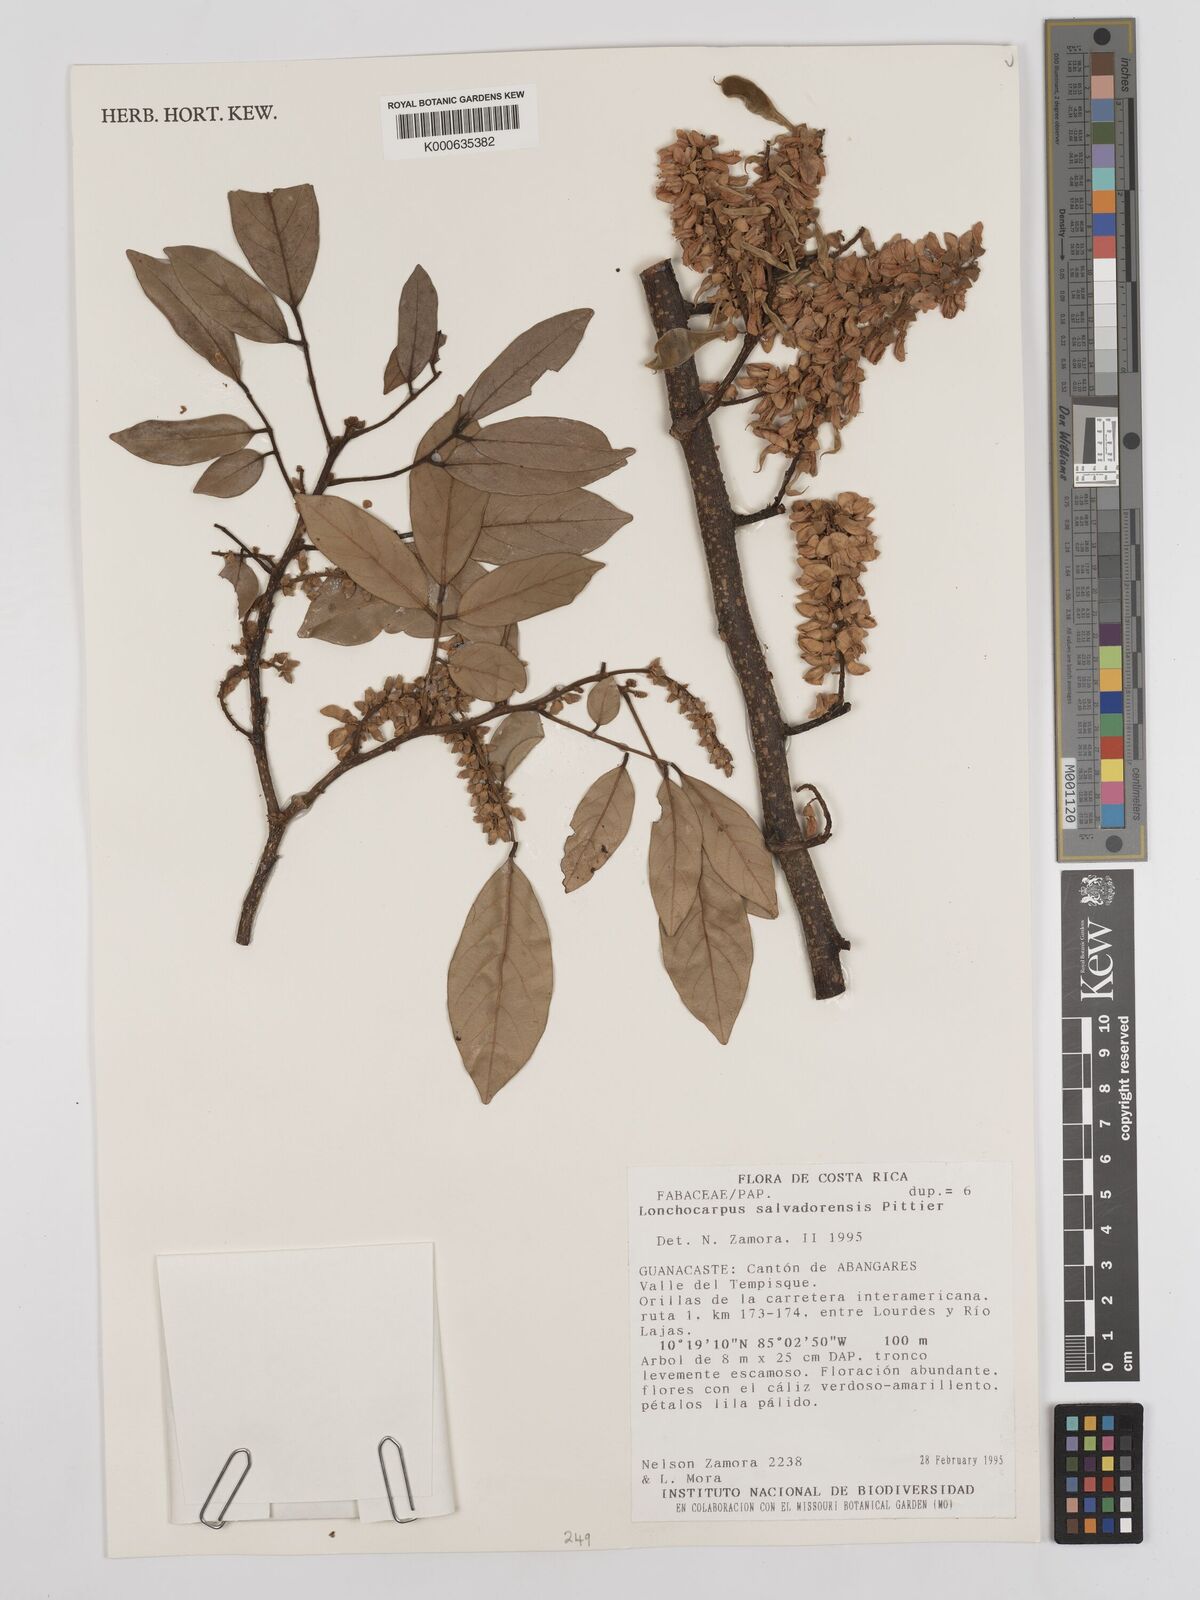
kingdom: Plantae
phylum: Tracheophyta
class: Magnoliopsida
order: Fabales
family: Fabaceae
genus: Lonchocarpus
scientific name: Lonchocarpus salvadorensis
